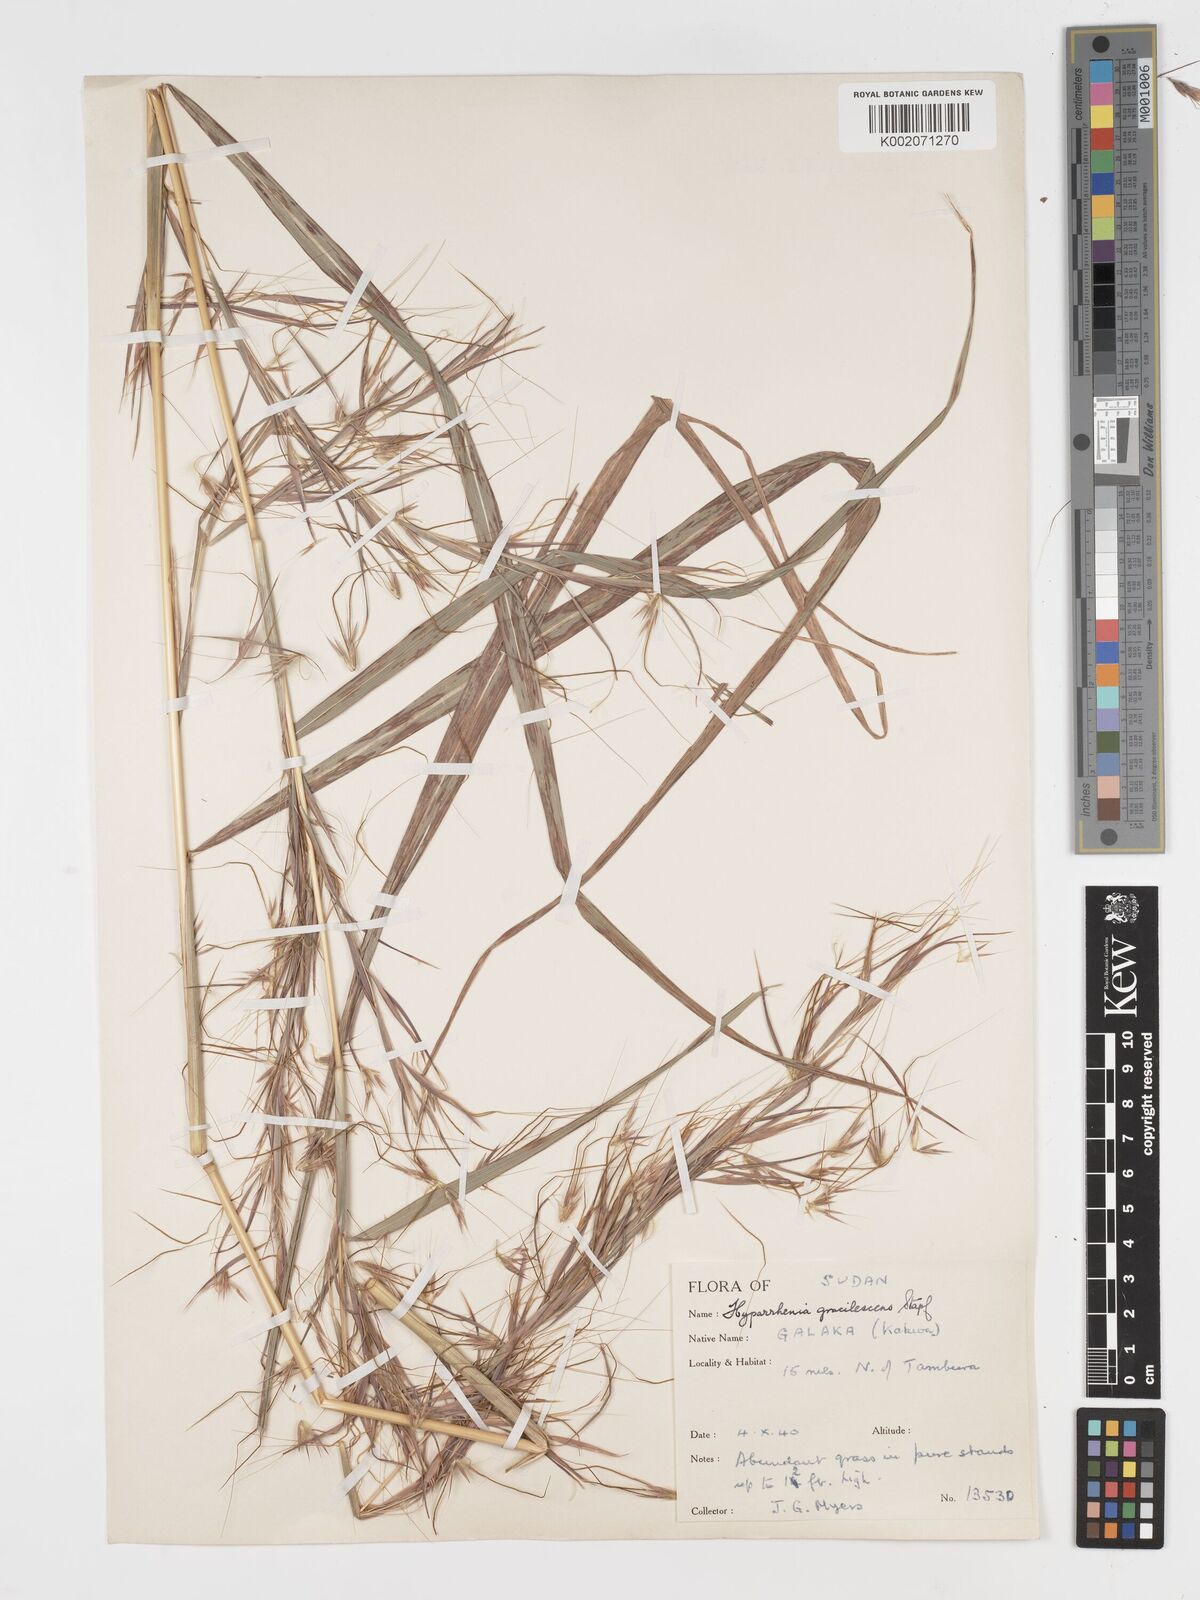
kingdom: Plantae
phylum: Tracheophyta
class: Liliopsida
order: Poales
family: Poaceae
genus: Hyparrhenia
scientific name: Hyparrhenia welwitschii
